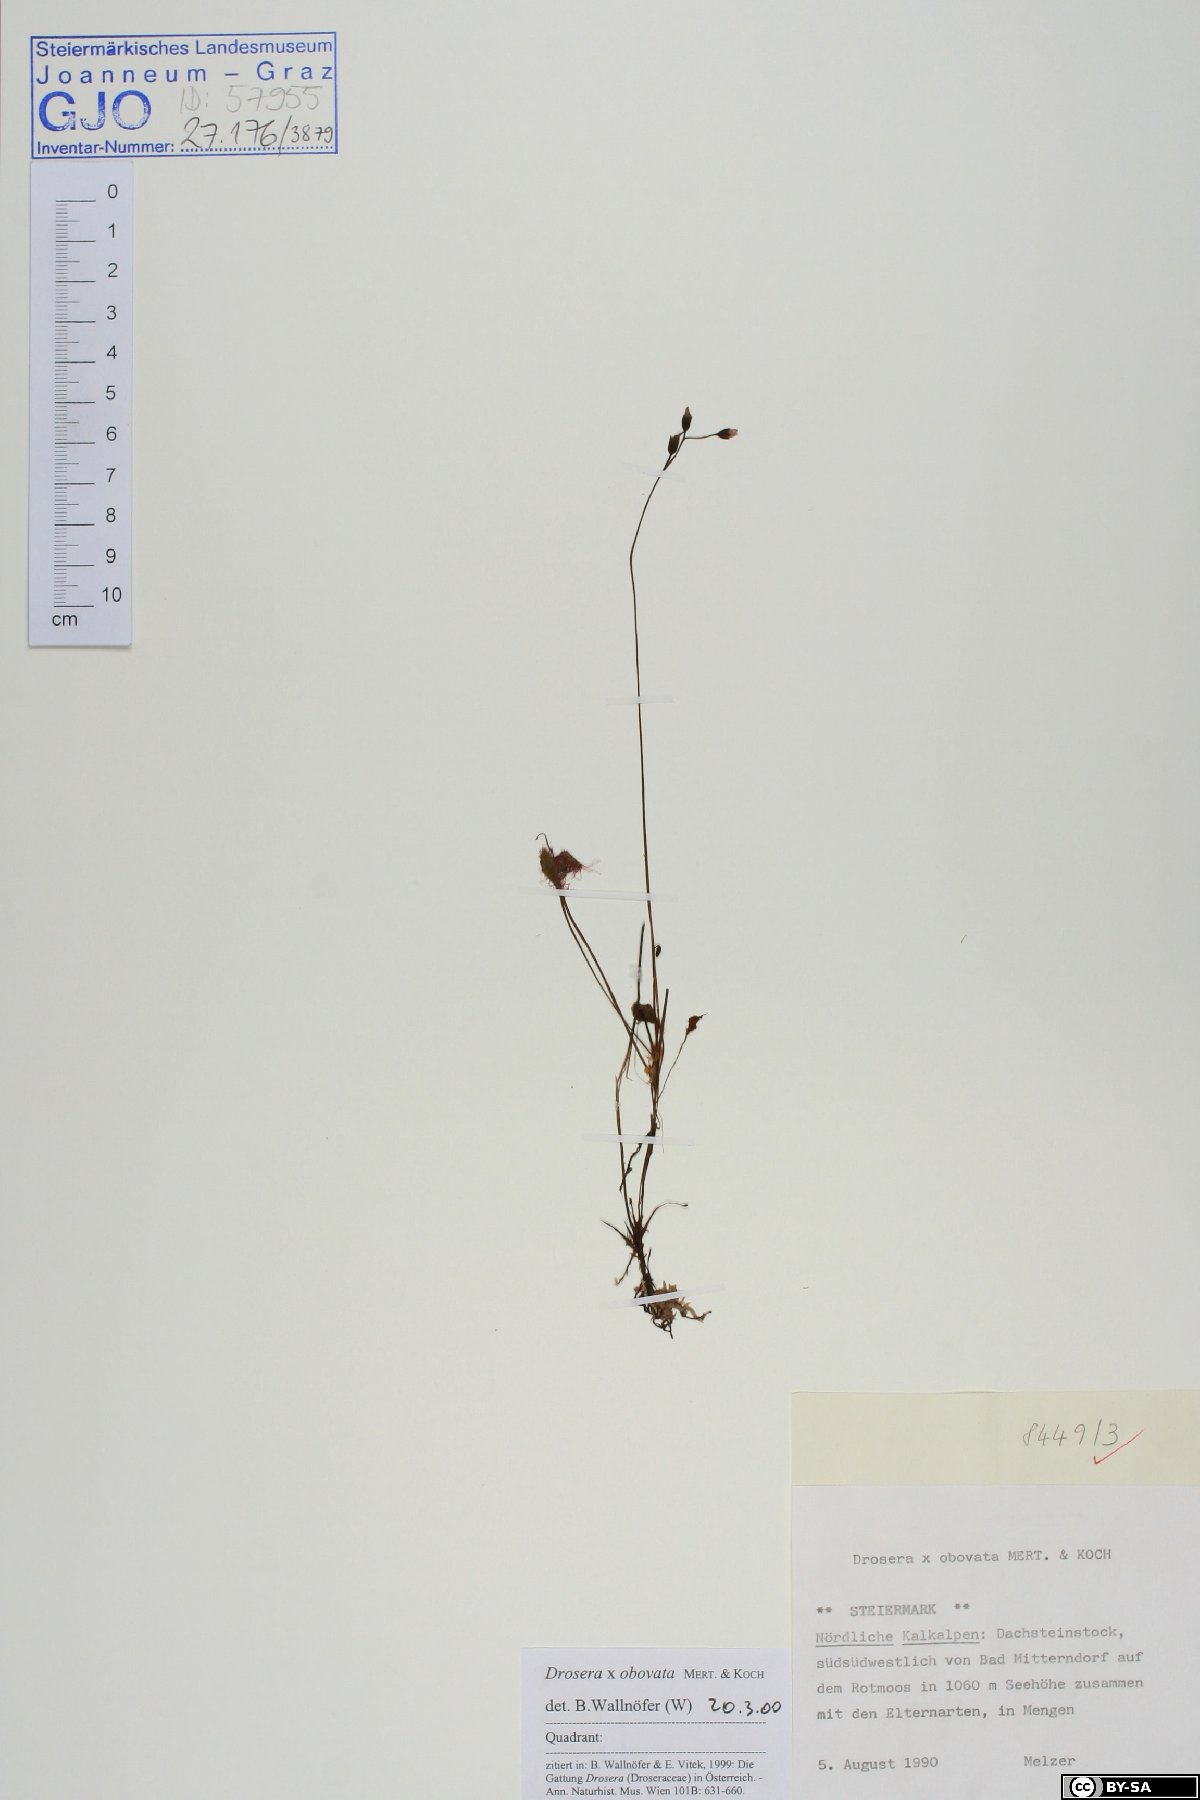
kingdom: Plantae
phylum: Tracheophyta
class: Magnoliopsida
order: Caryophyllales
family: Droseraceae
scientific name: Droseraceae
